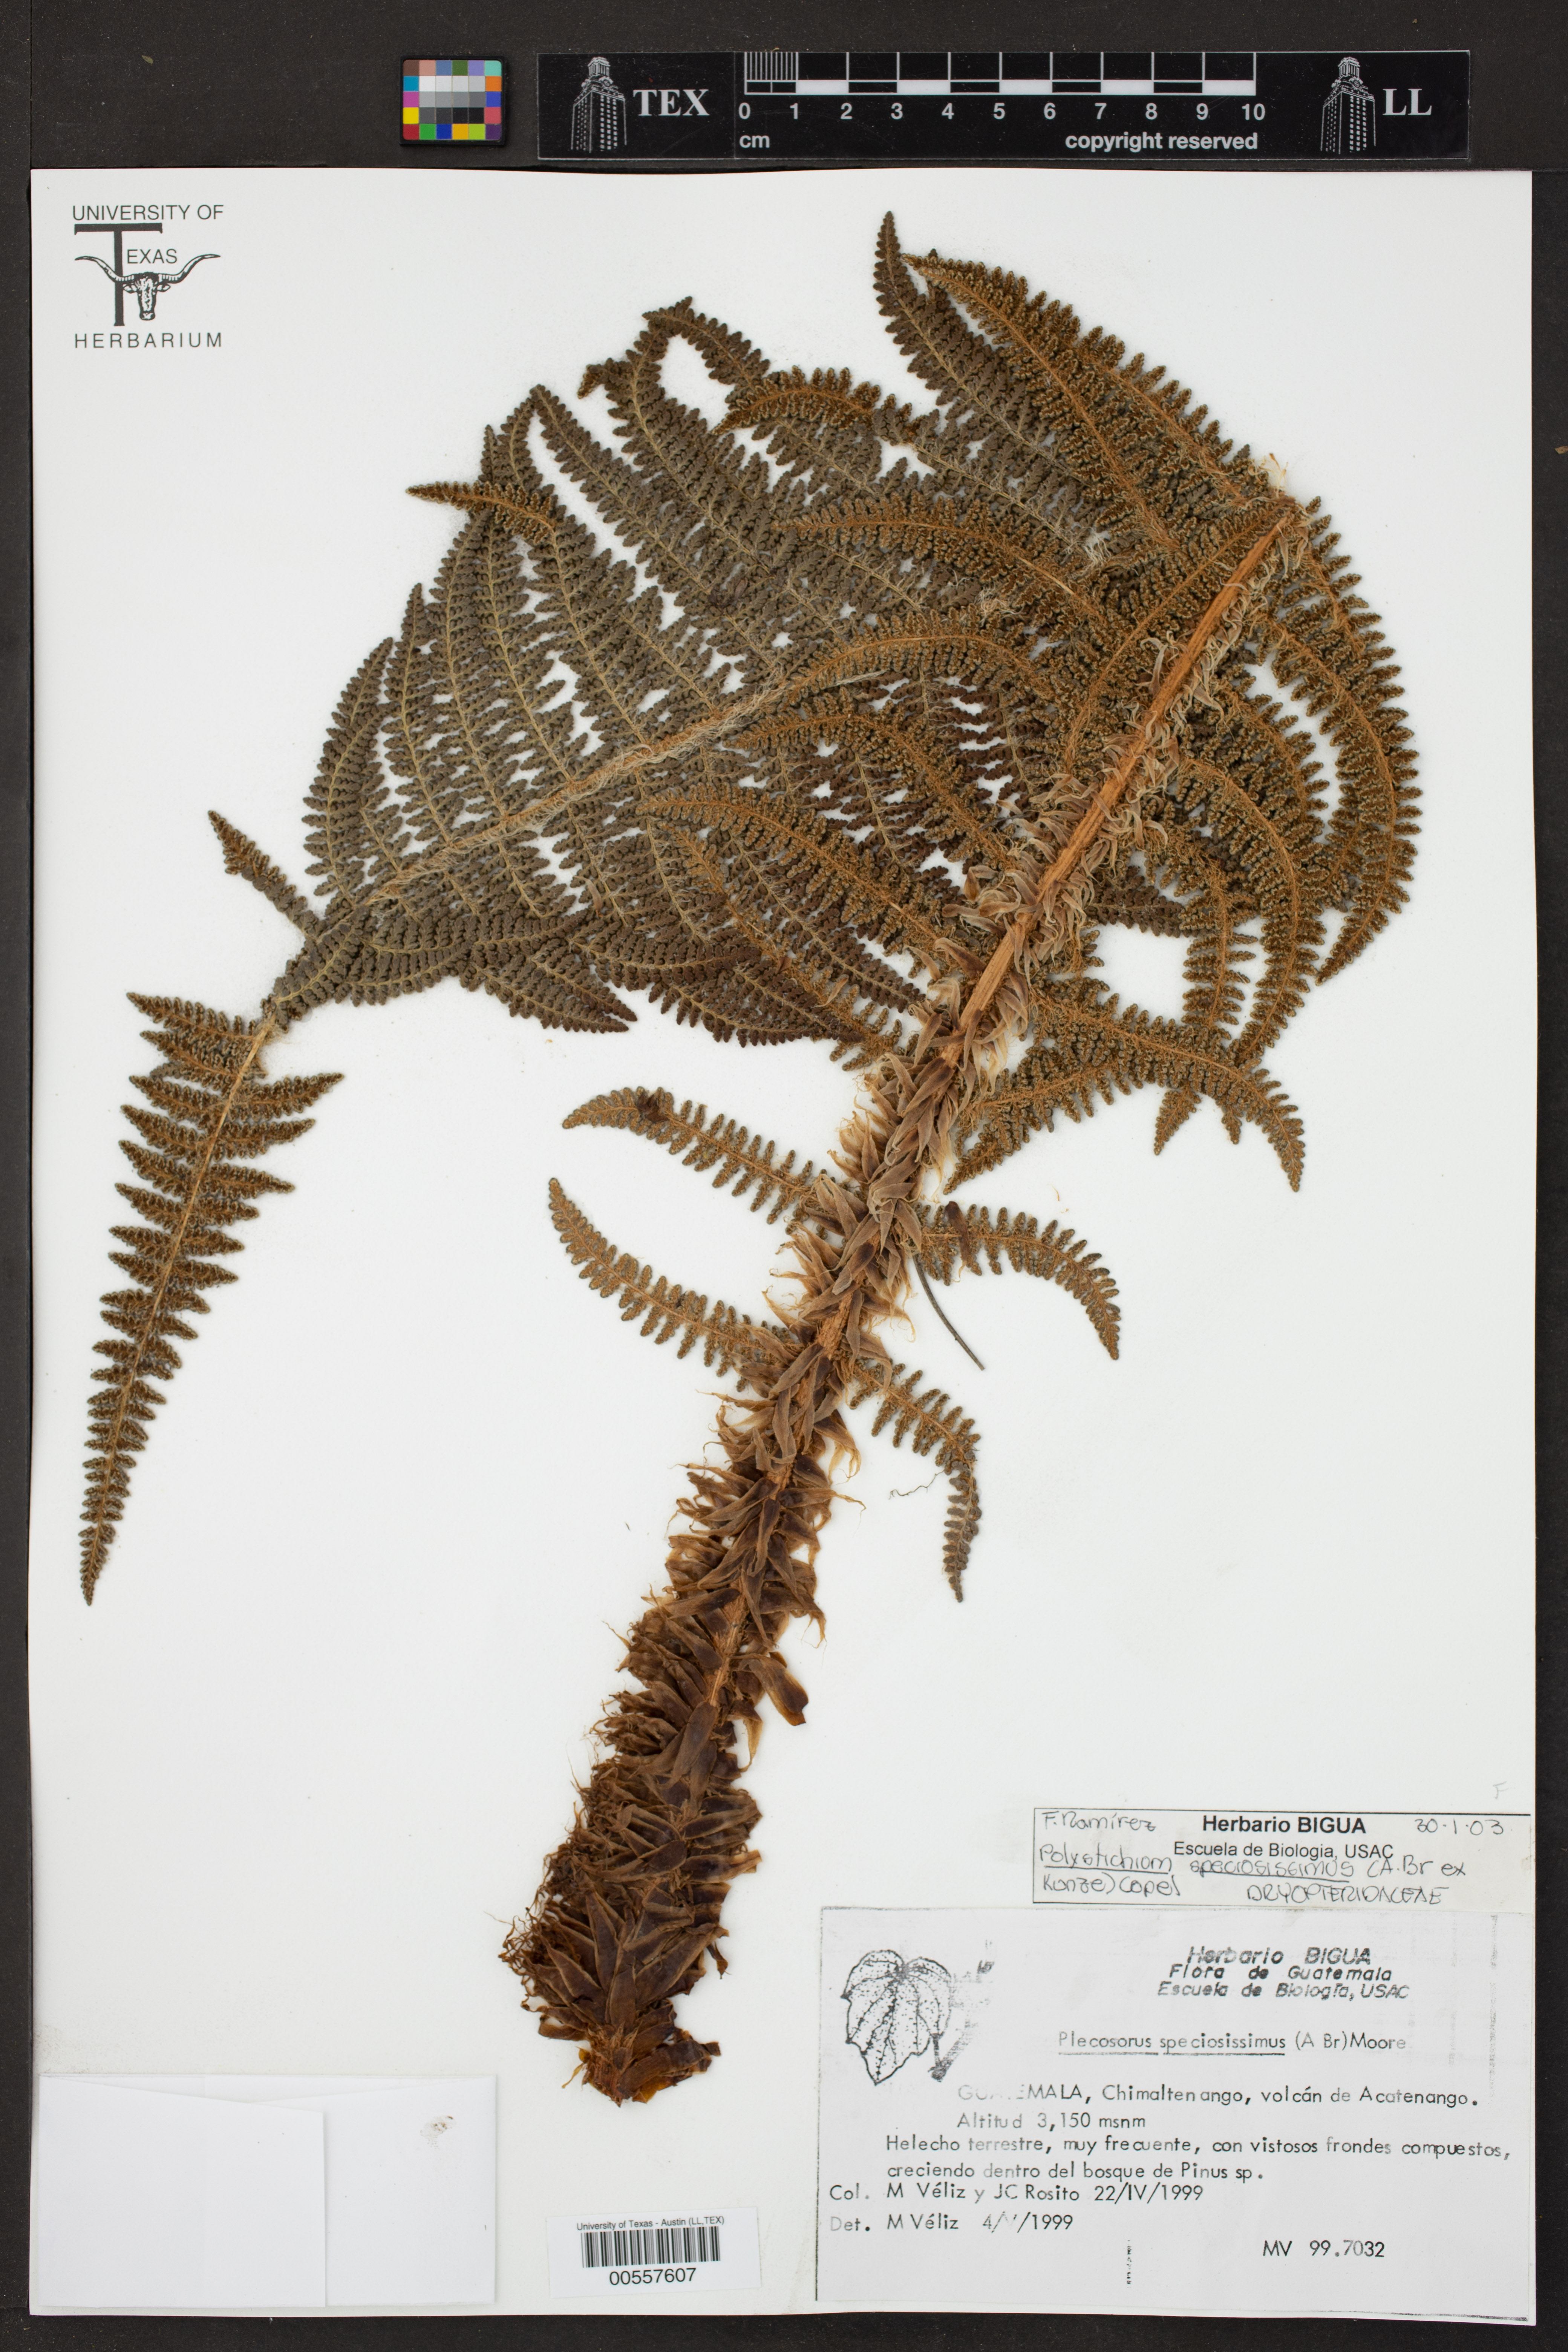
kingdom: Plantae
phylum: Tracheophyta
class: Polypodiopsida
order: Polypodiales
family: Dryopteridaceae
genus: Polystichum
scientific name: Polystichum speciosissimum
